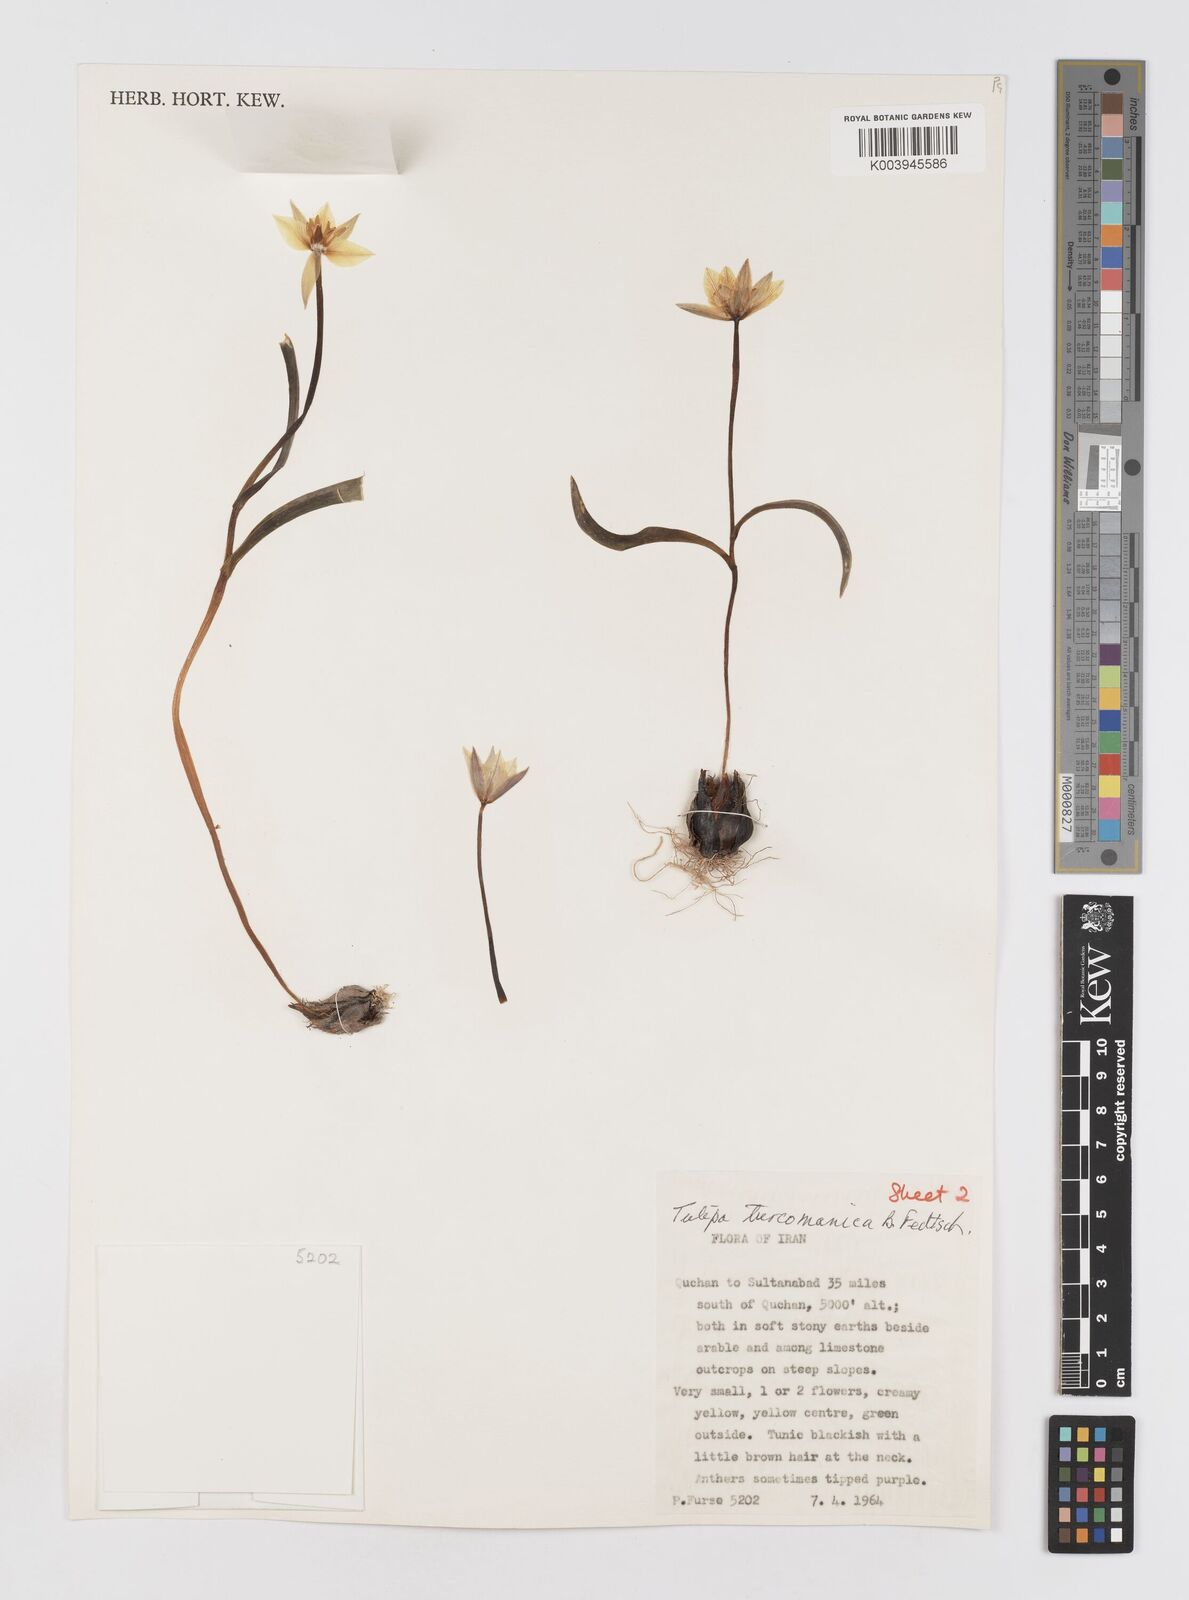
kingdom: Plantae
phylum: Tracheophyta
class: Liliopsida
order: Liliales
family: Liliaceae
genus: Tulipa
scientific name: Tulipa biflora
